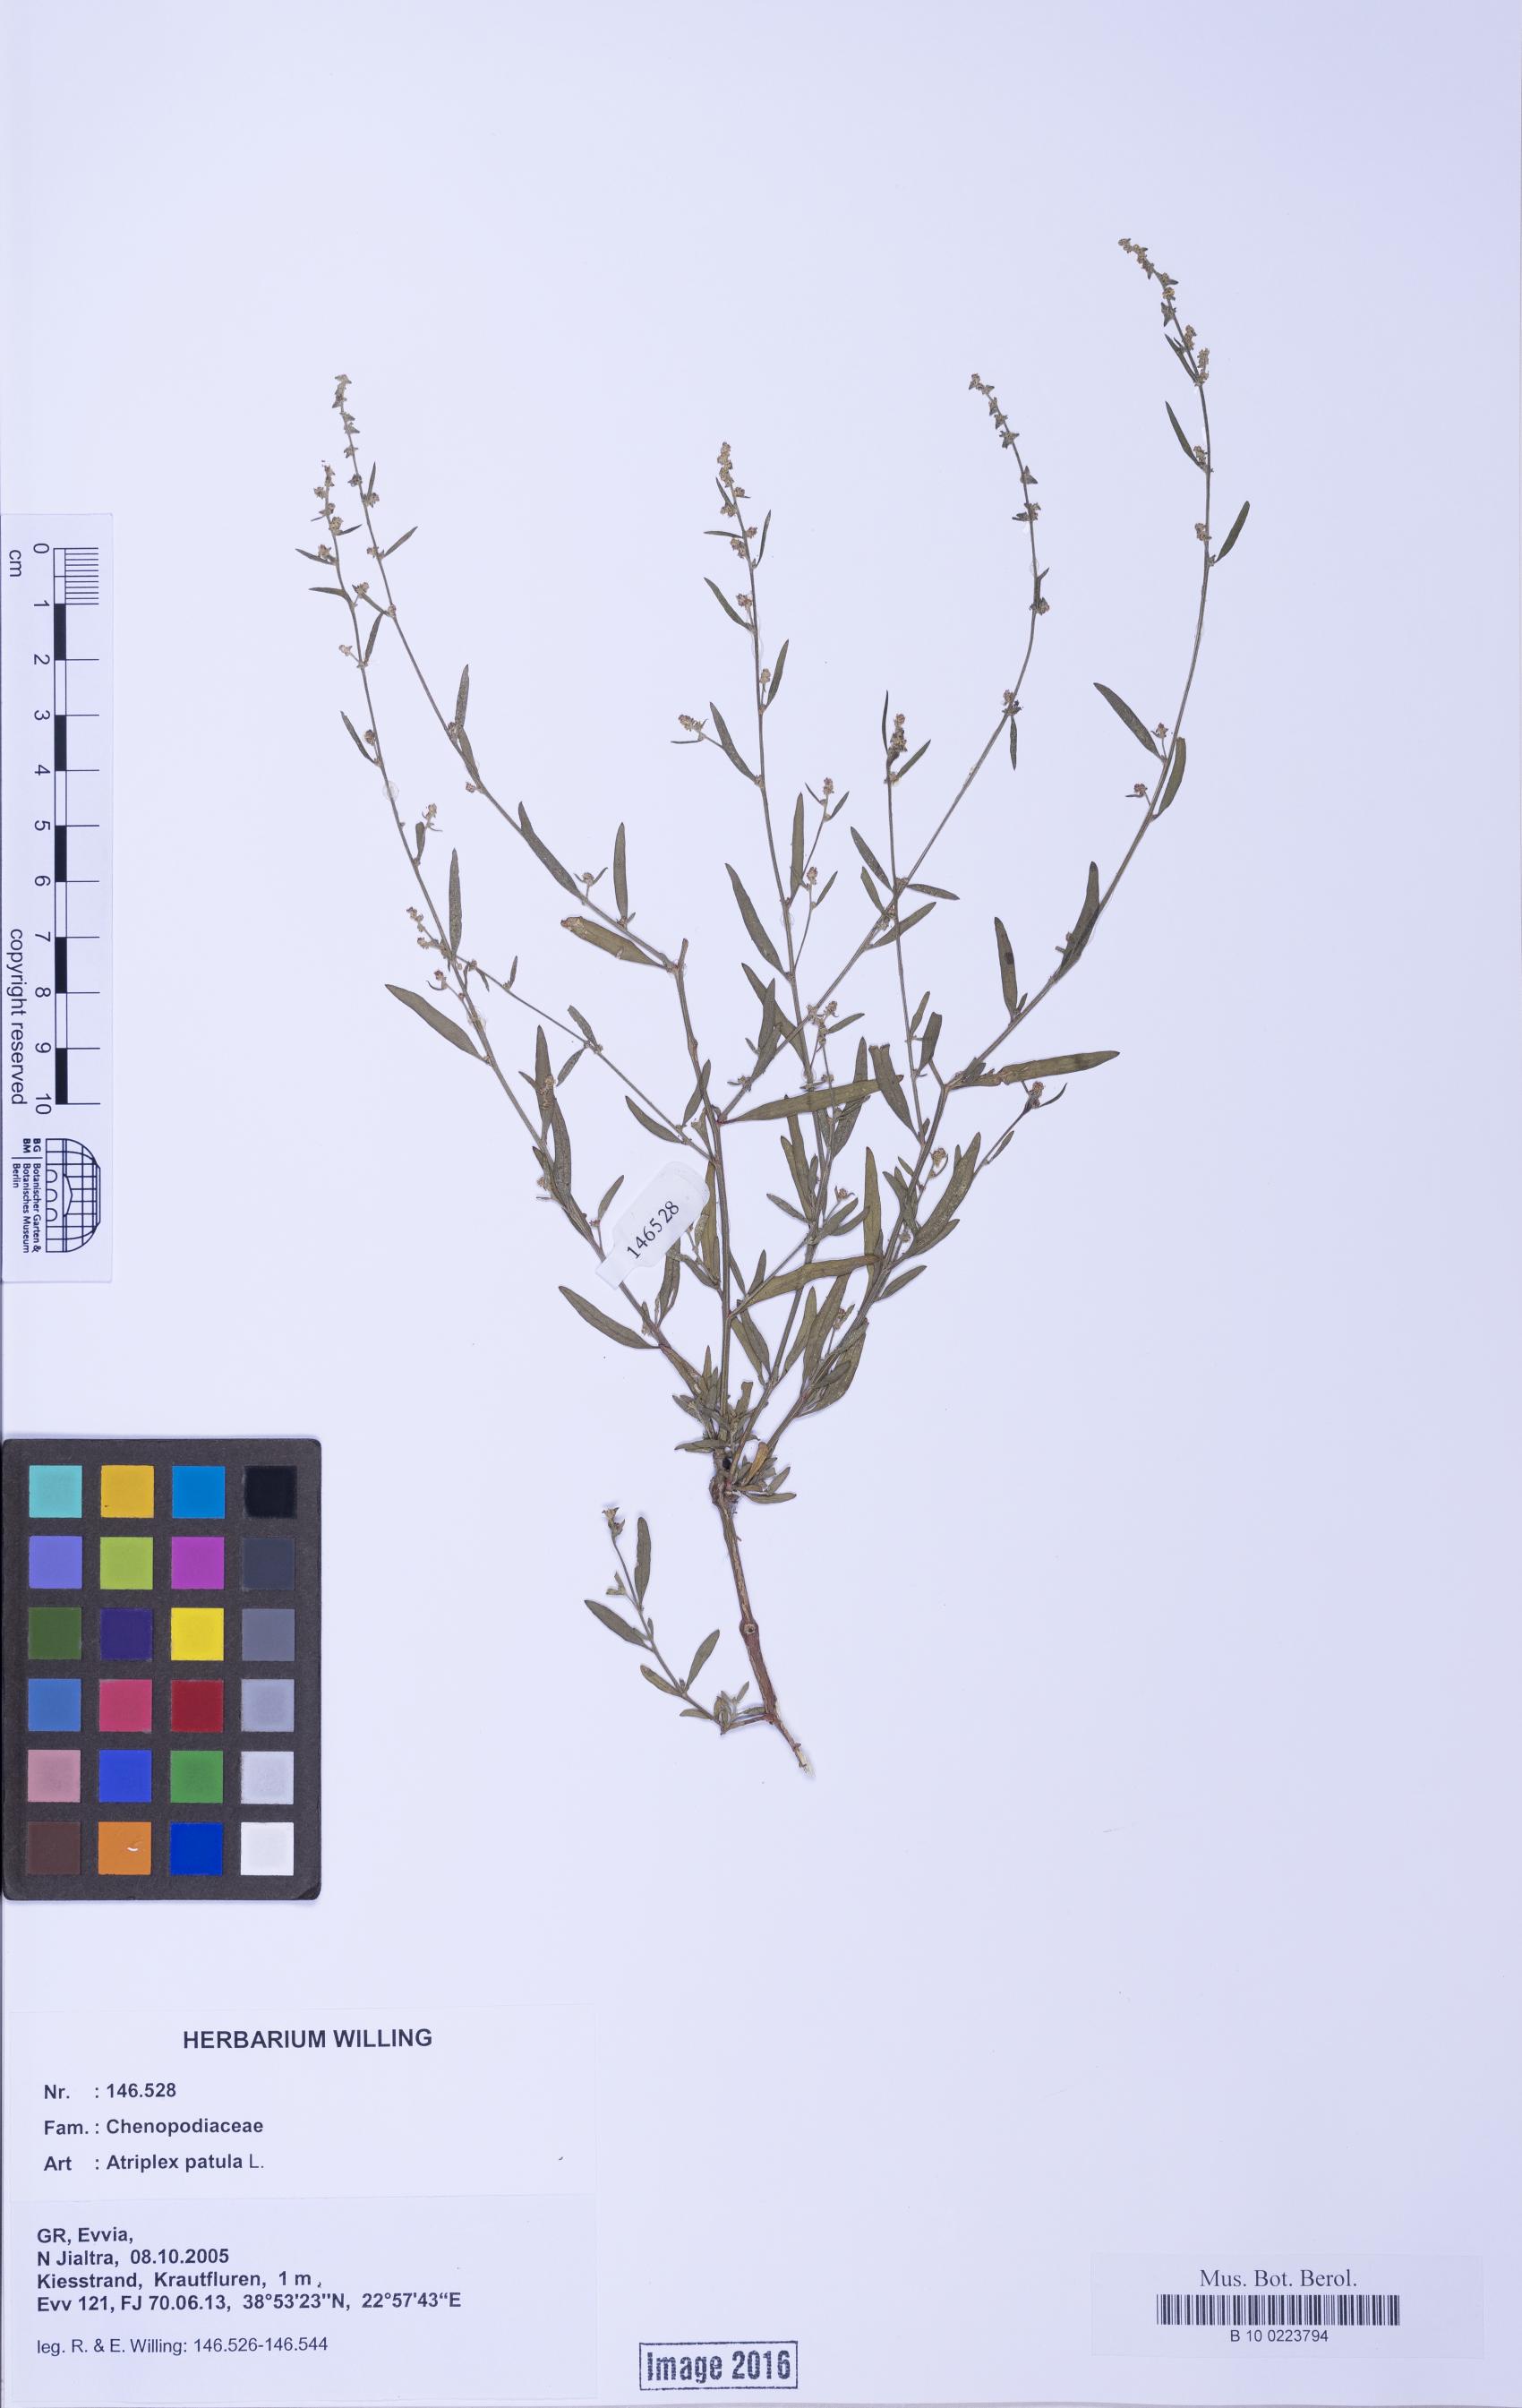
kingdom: Plantae
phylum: Tracheophyta
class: Magnoliopsida
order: Caryophyllales
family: Amaranthaceae
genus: Atriplex
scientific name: Atriplex patula
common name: Common orache
